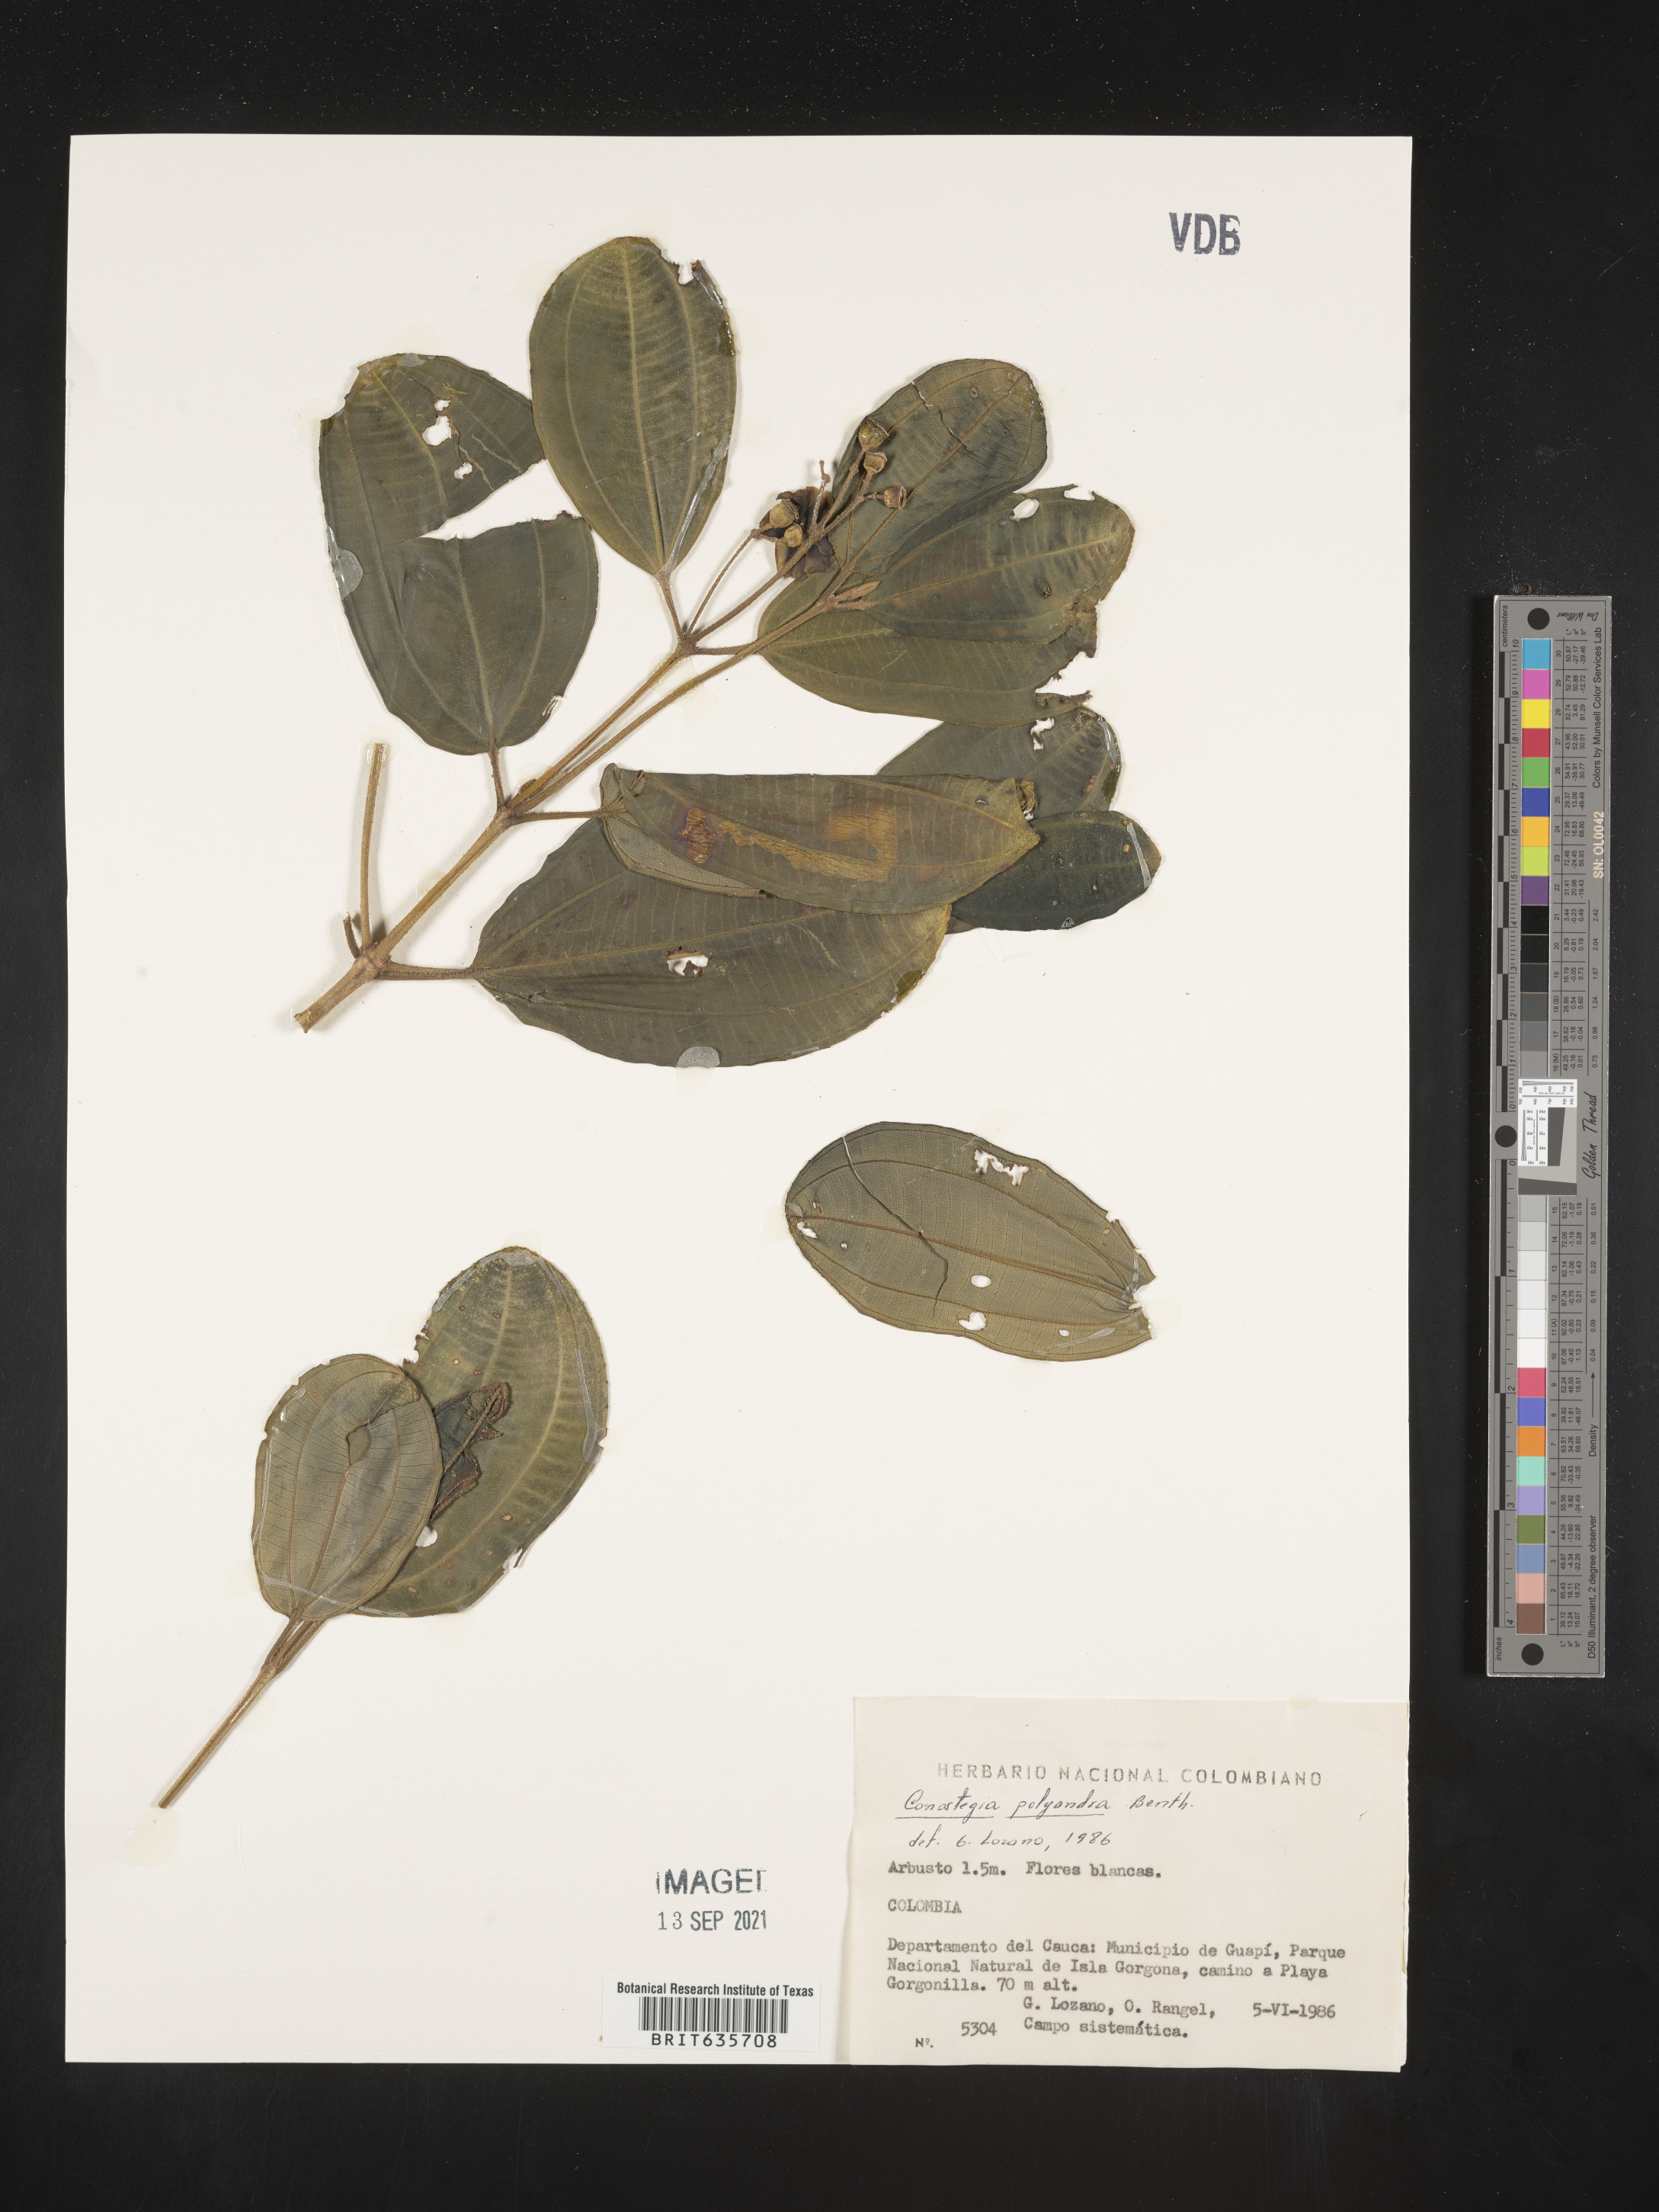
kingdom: Plantae
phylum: Tracheophyta
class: Magnoliopsida
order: Myrtales
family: Melastomataceae
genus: Miconia
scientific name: Miconia
